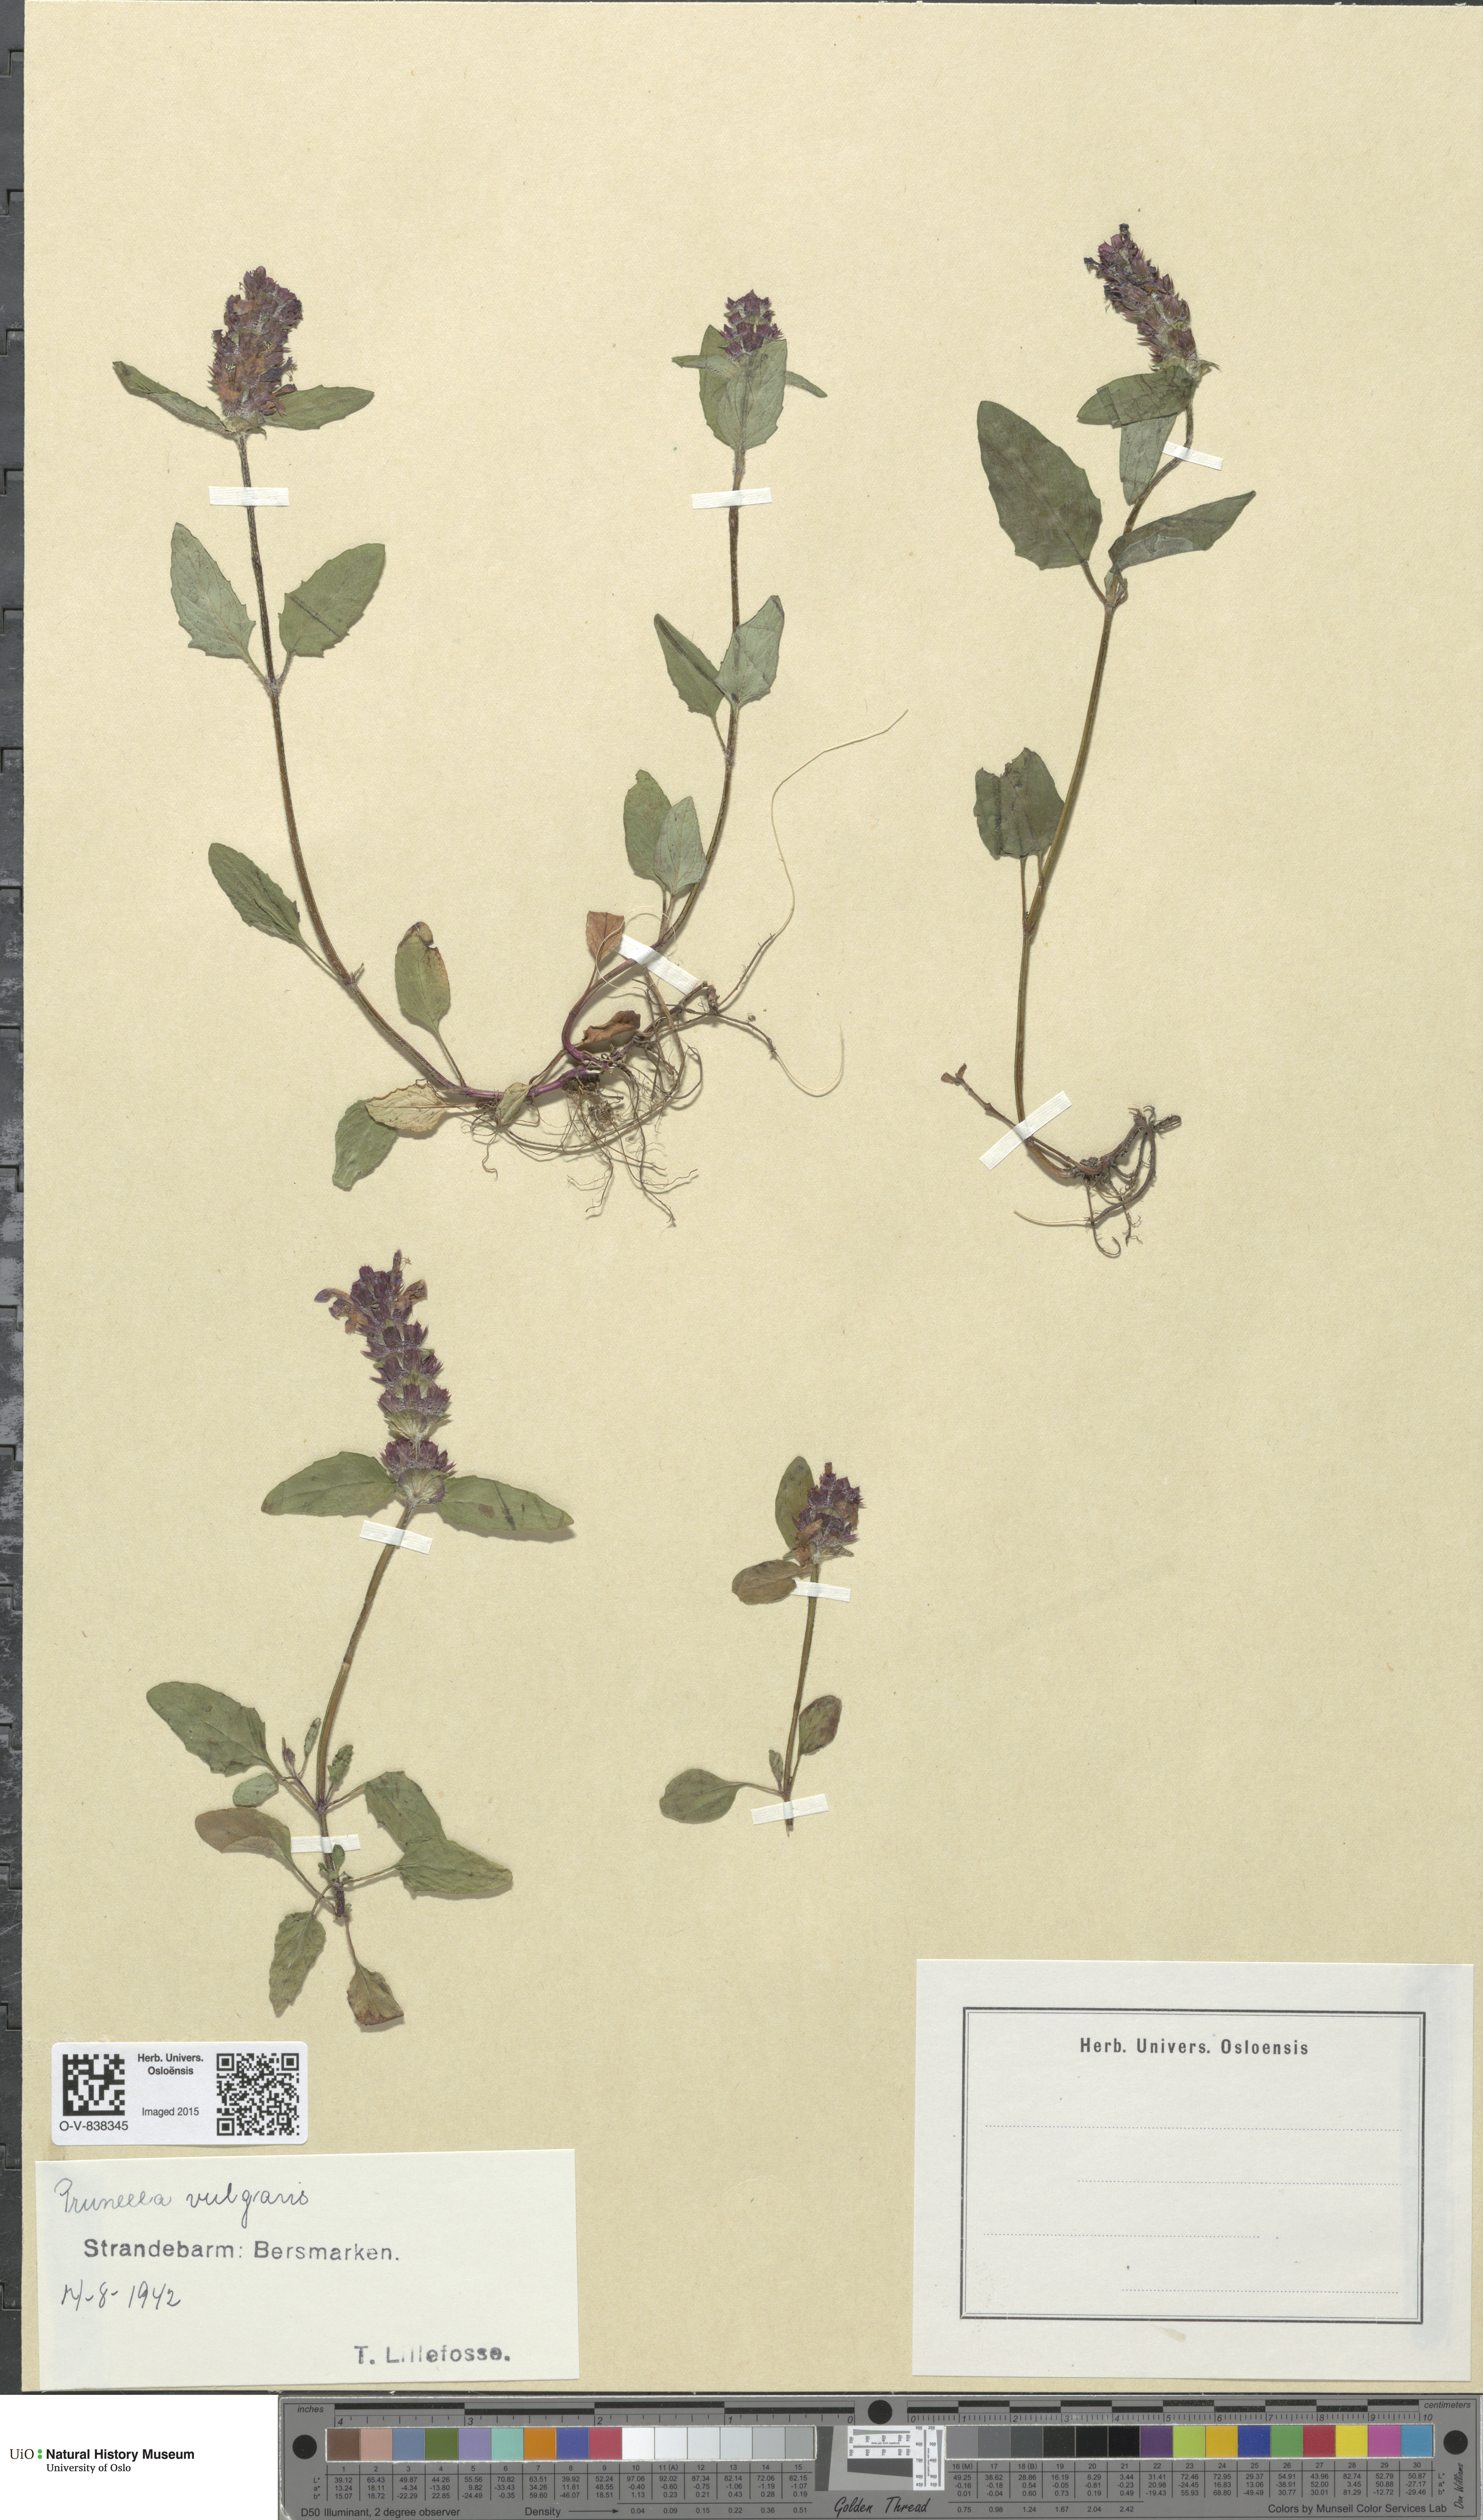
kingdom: Plantae
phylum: Tracheophyta
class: Magnoliopsida
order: Lamiales
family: Lamiaceae
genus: Prunella
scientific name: Prunella vulgaris
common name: Heal-all
